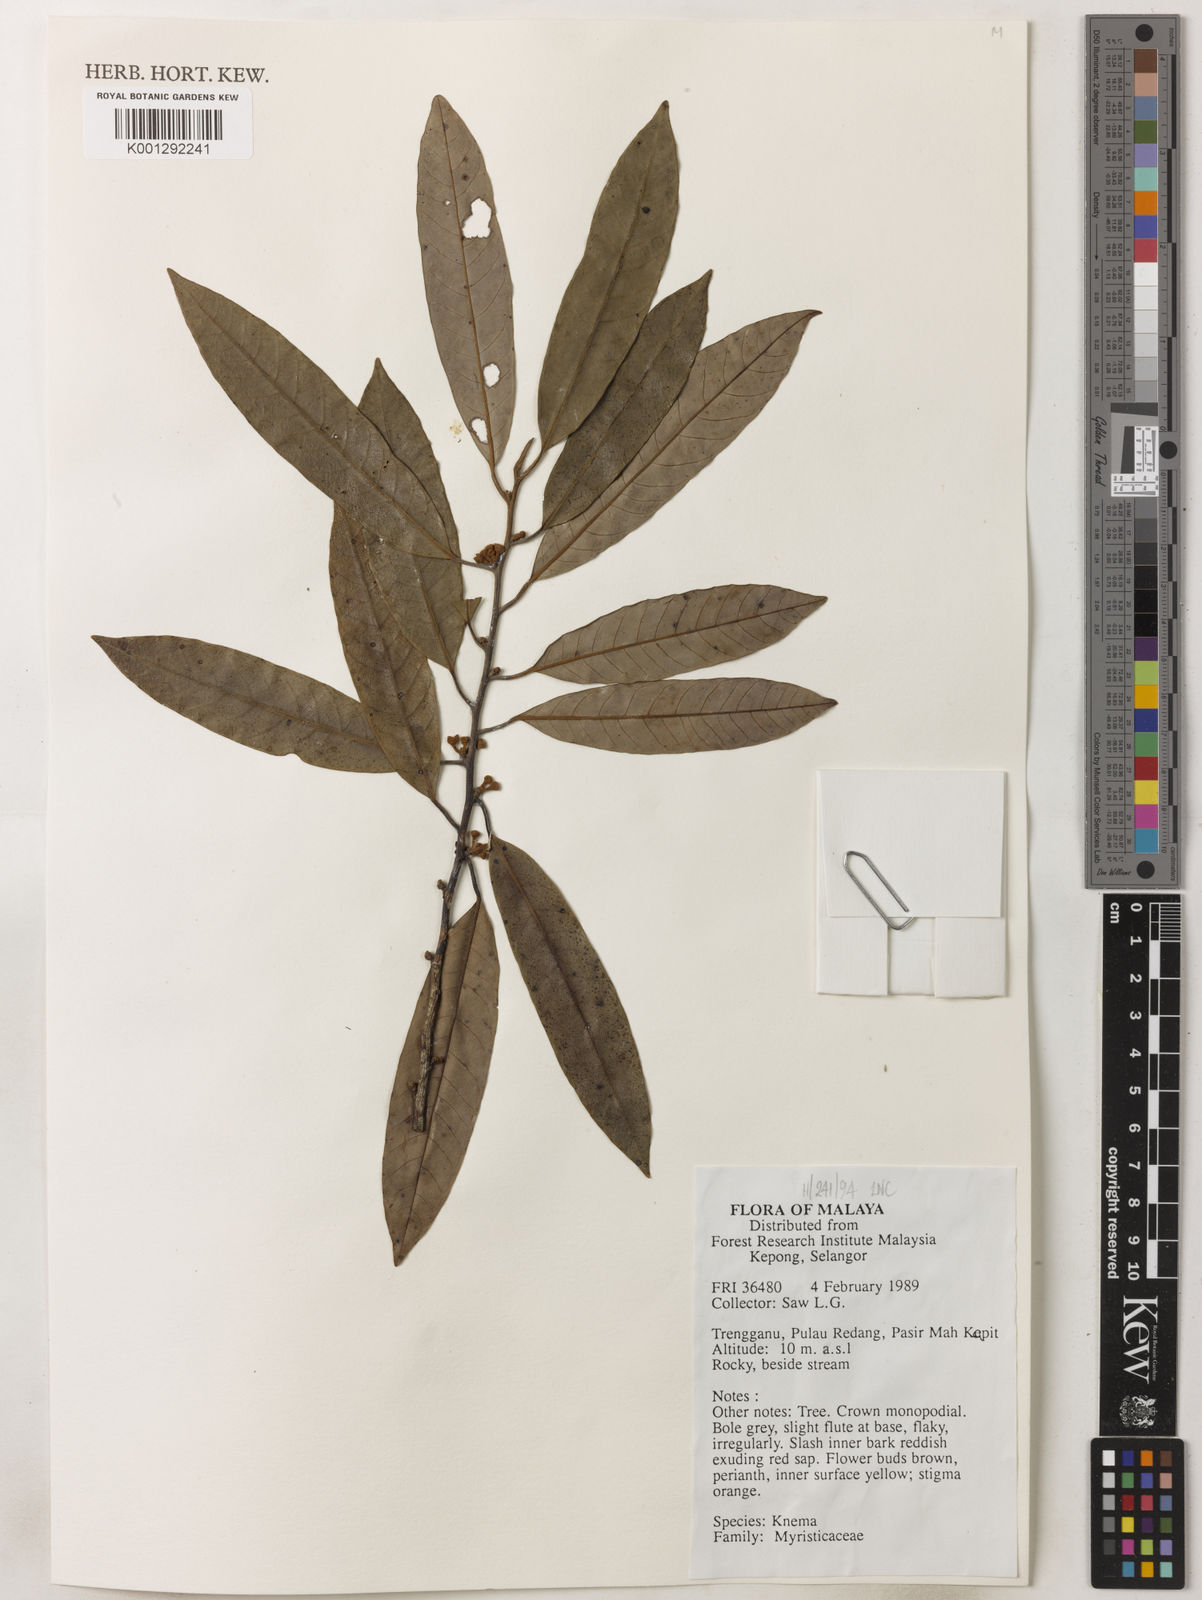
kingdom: Plantae
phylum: Tracheophyta
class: Magnoliopsida
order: Magnoliales
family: Myristicaceae
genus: Knema
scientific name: Knema
